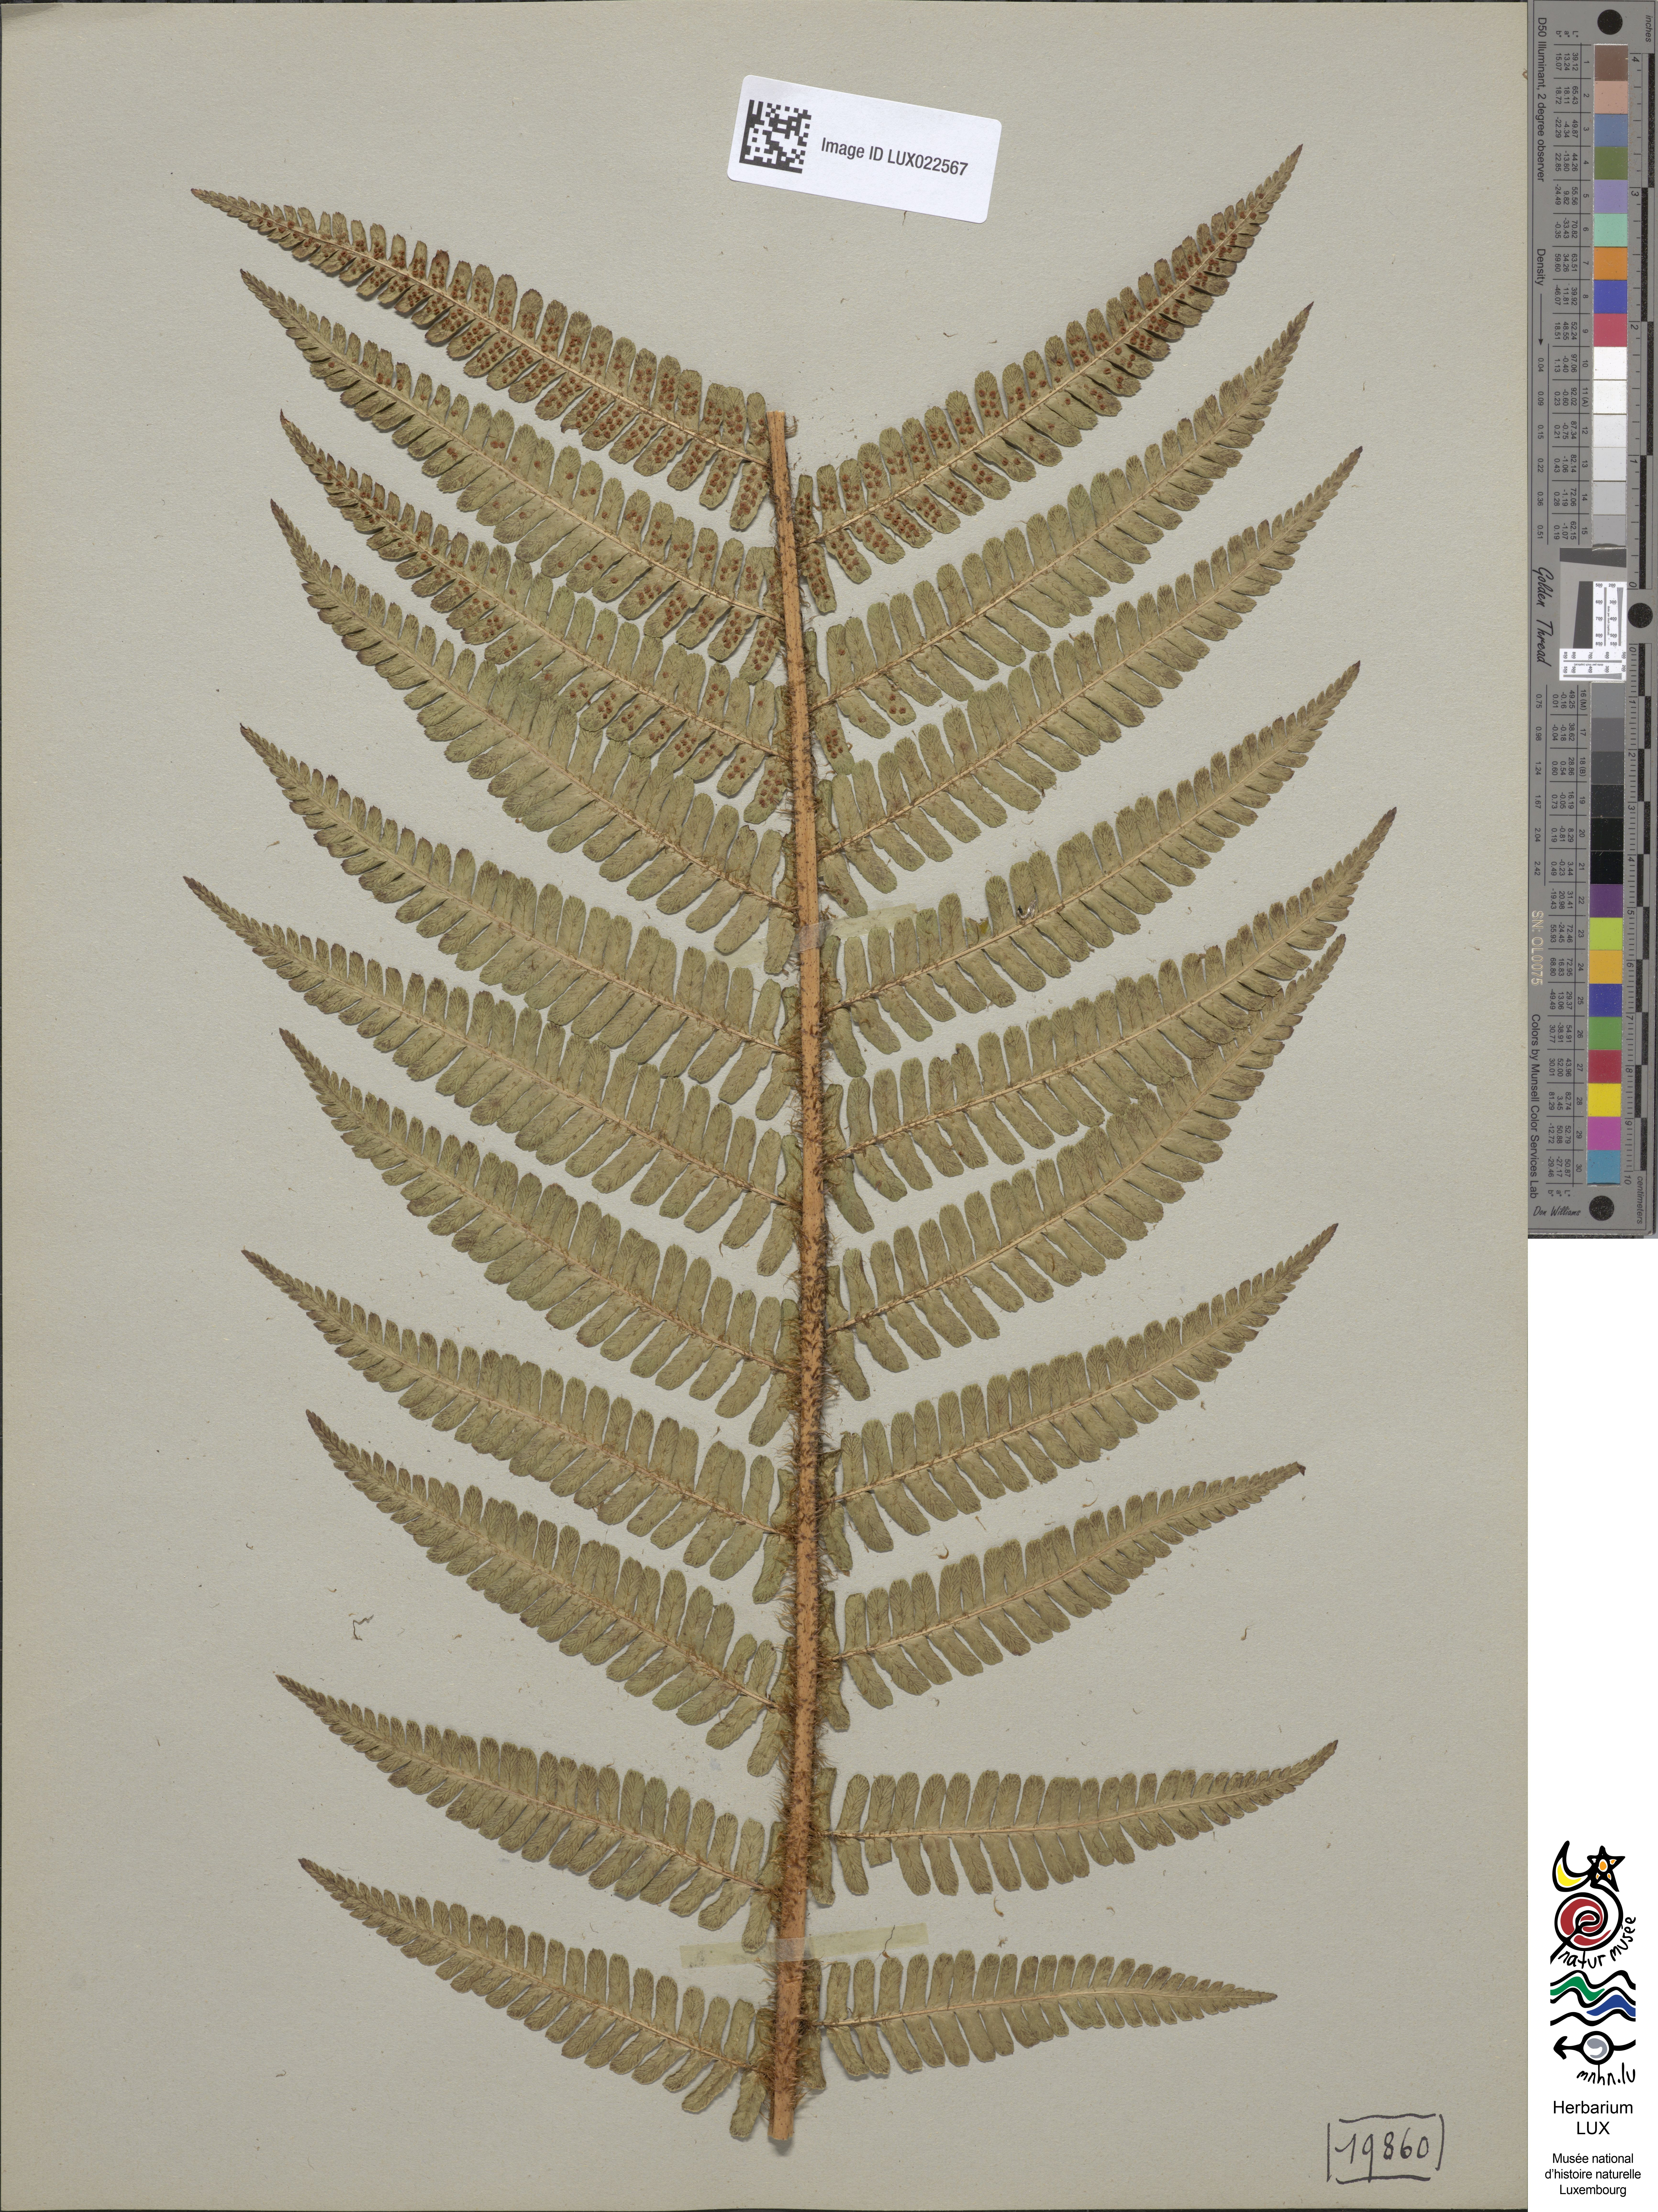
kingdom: Plantae
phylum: Tracheophyta
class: Polypodiopsida
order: Polypodiales
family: Dryopteridaceae
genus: Dryopteris
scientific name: Dryopteris borreri
